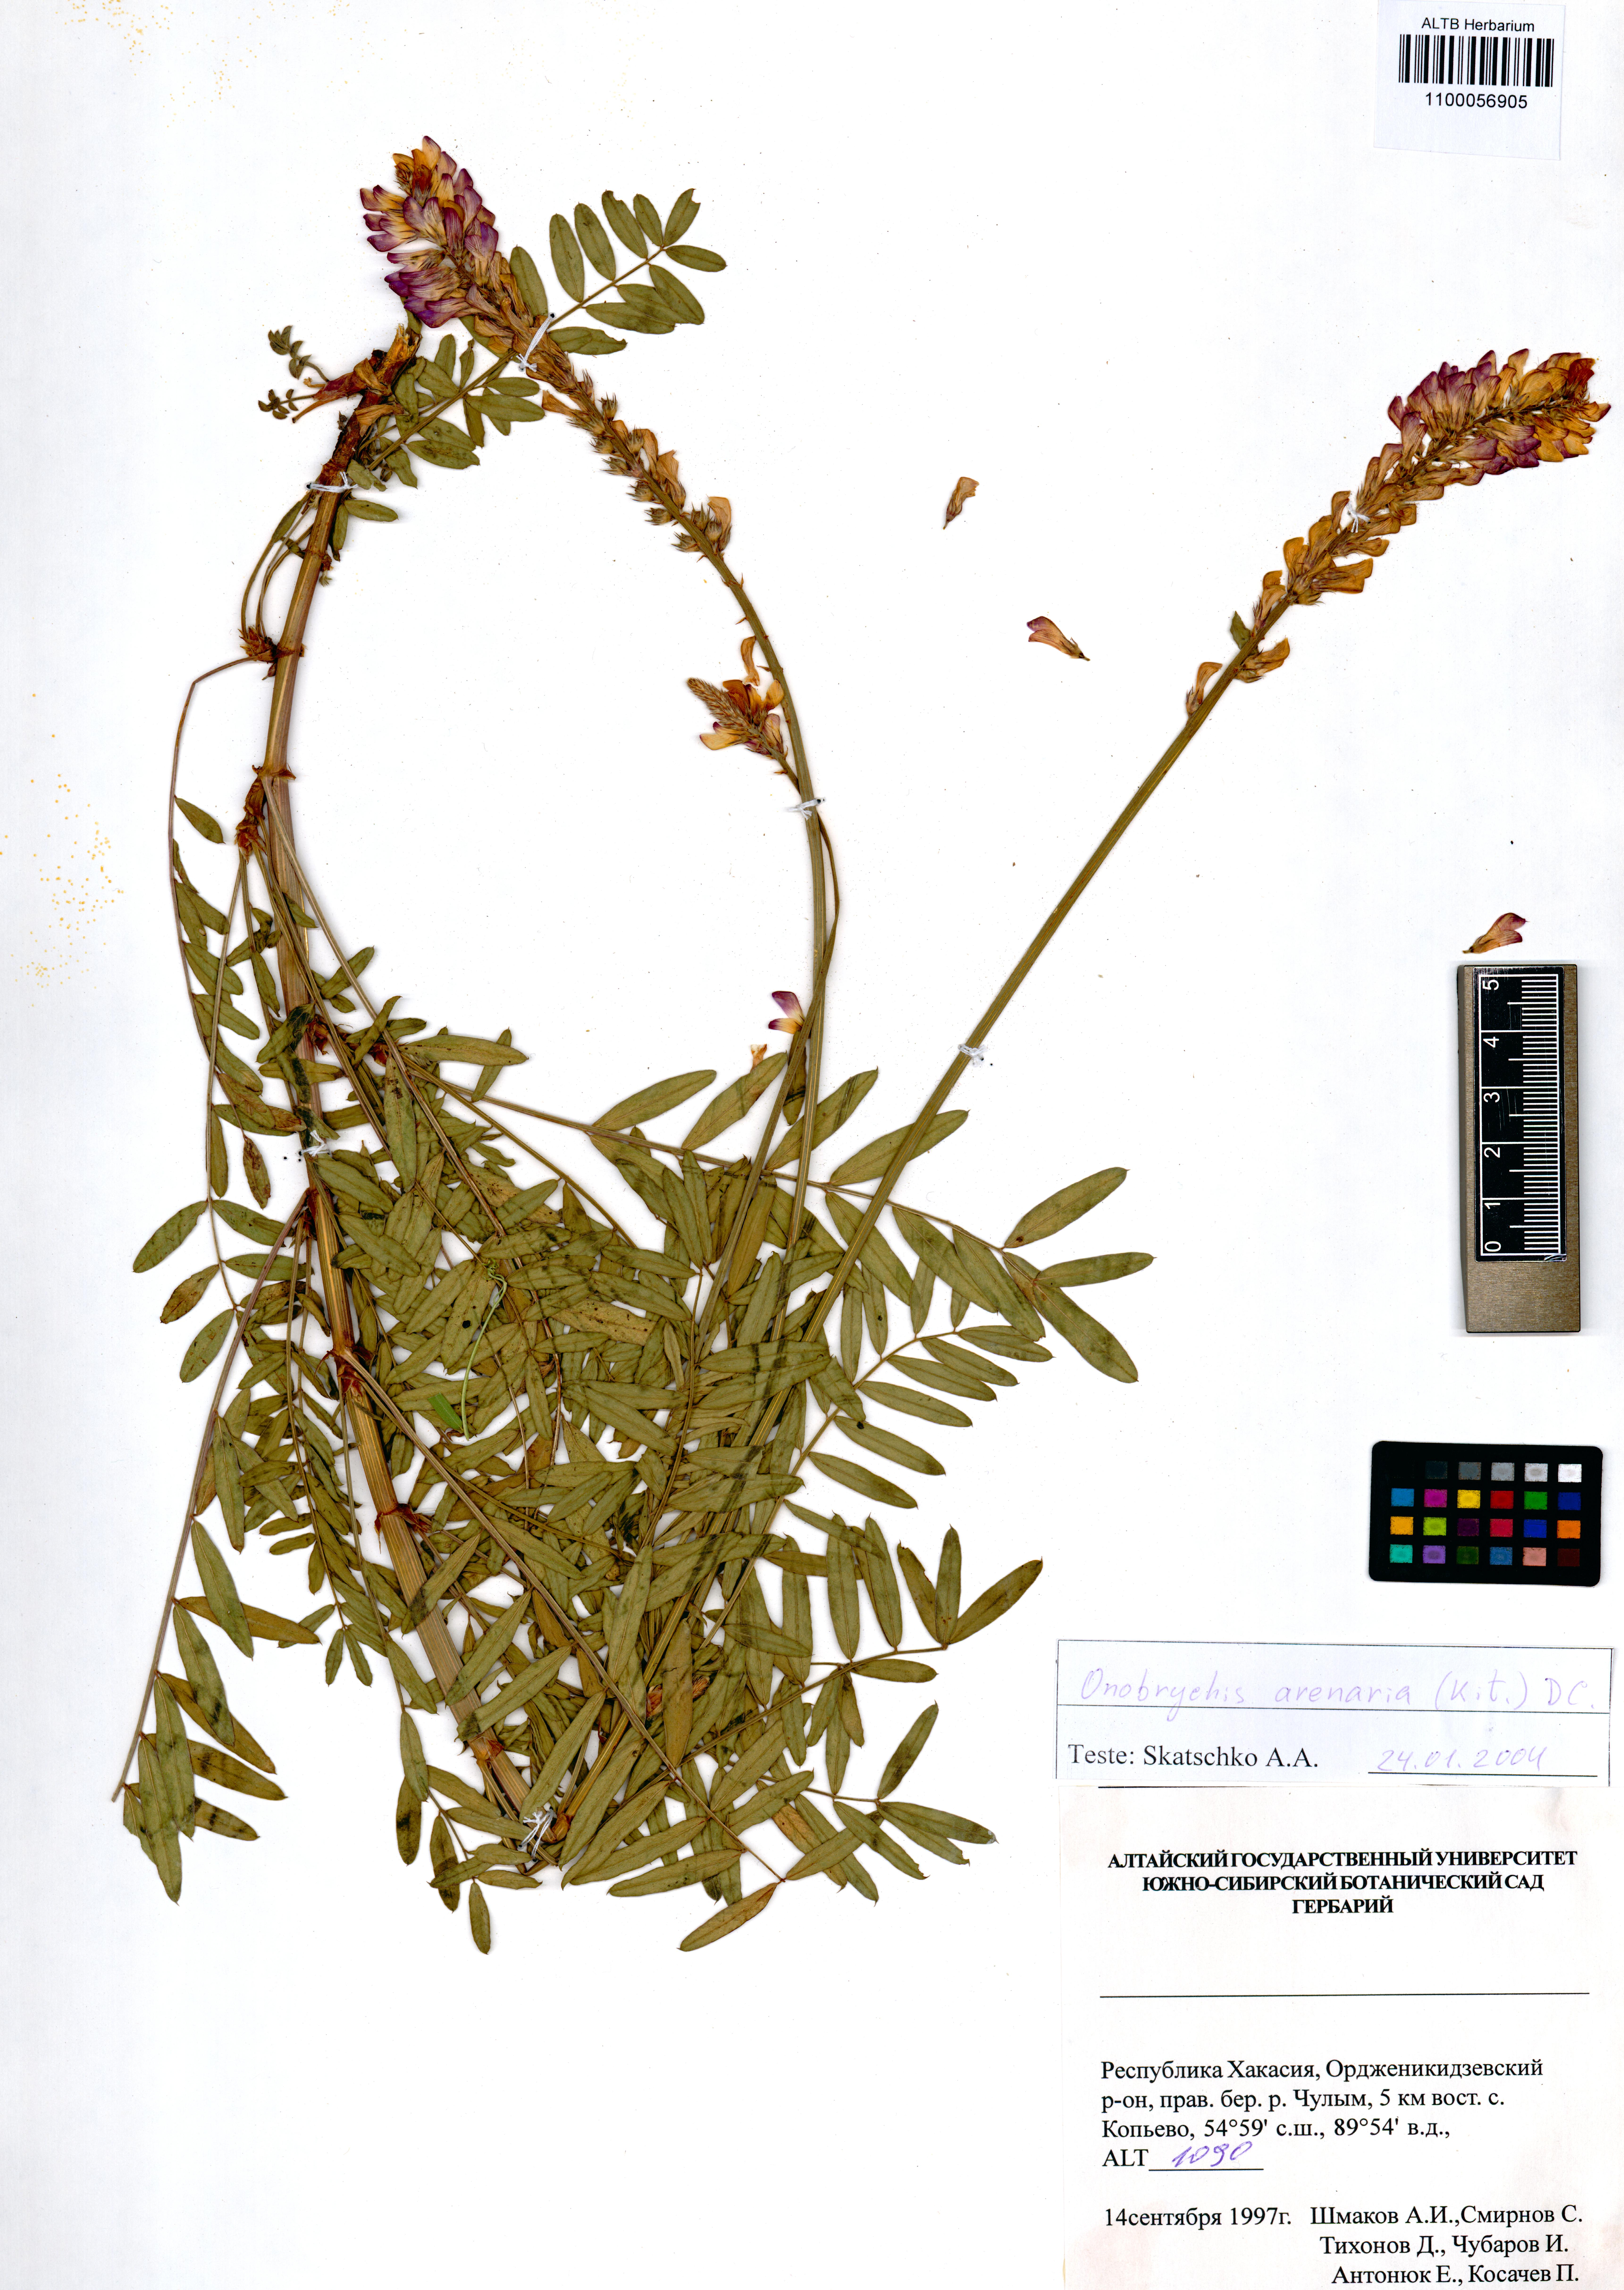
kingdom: Plantae
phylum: Tracheophyta
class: Magnoliopsida
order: Fabales
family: Fabaceae
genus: Onobrychis
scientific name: Onobrychis arenaria
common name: Sand esparcet
